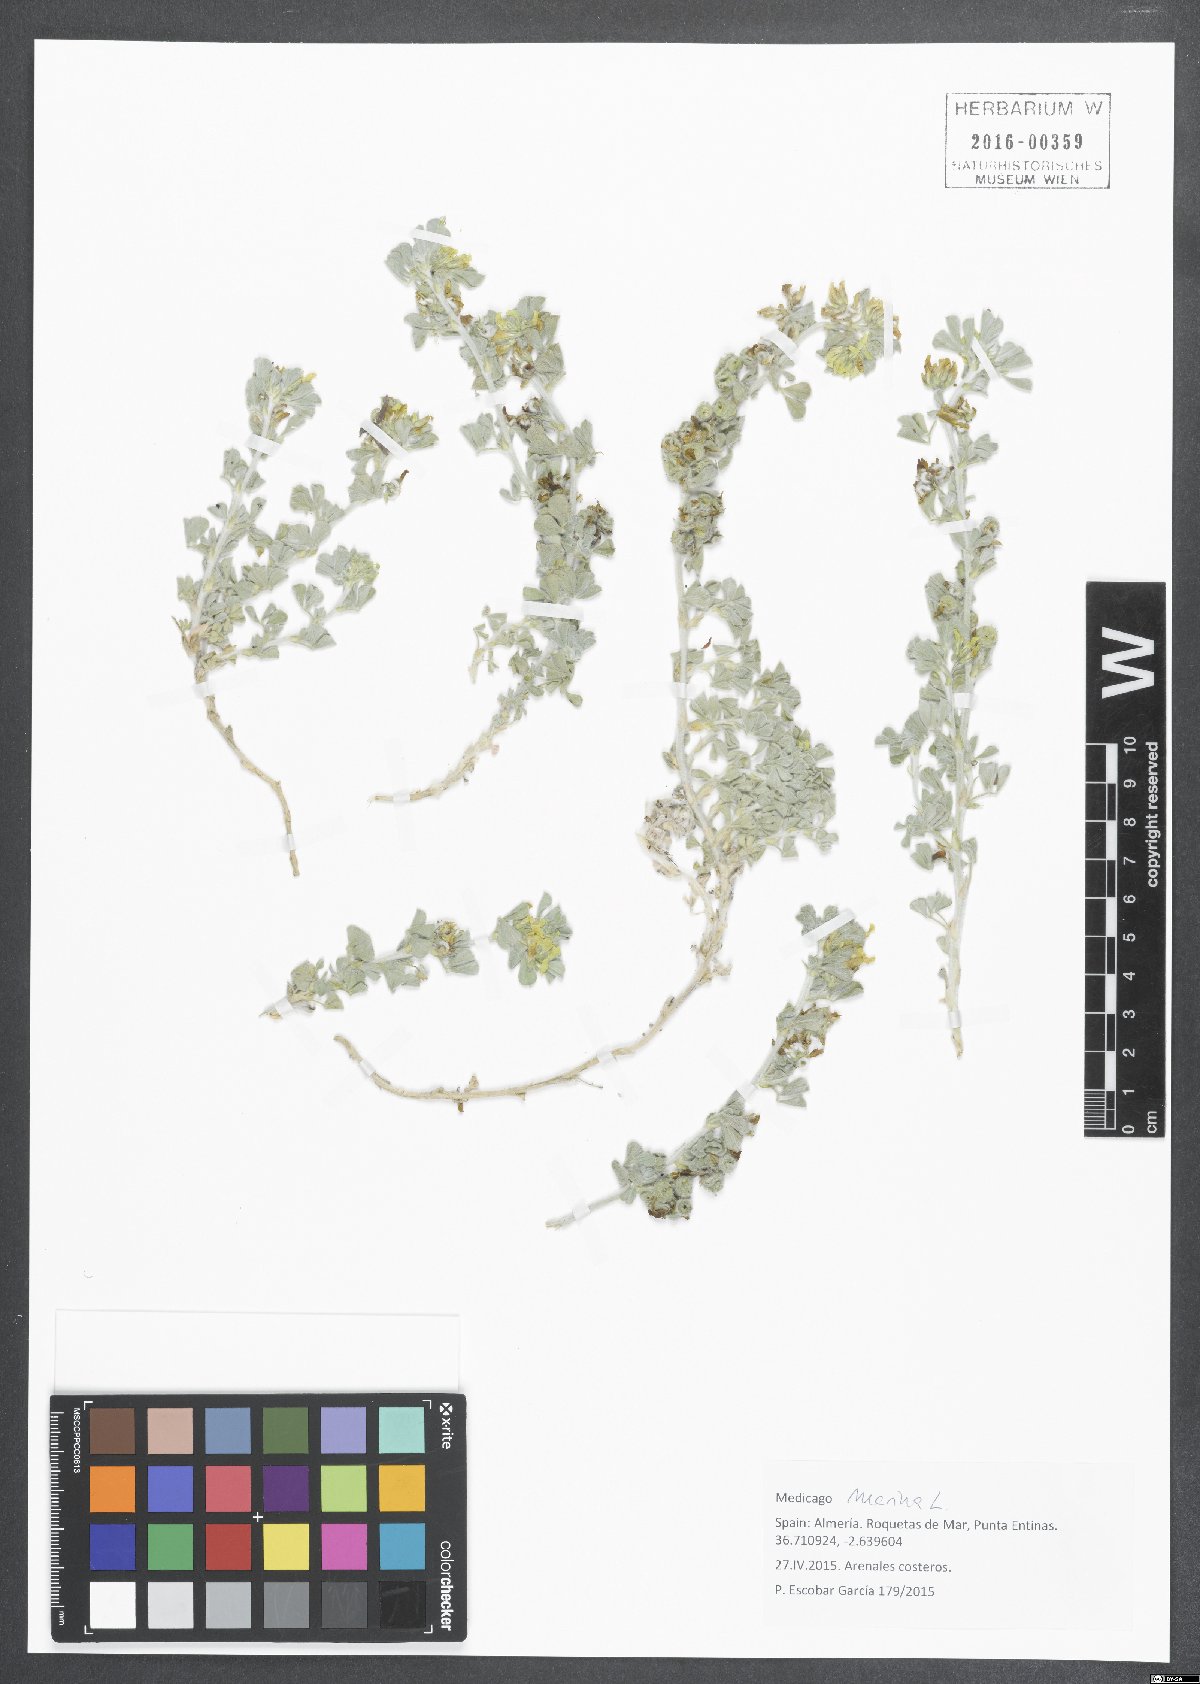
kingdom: Plantae
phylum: Tracheophyta
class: Magnoliopsida
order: Fabales
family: Fabaceae
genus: Medicago
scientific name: Medicago marina
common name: Sea medick
